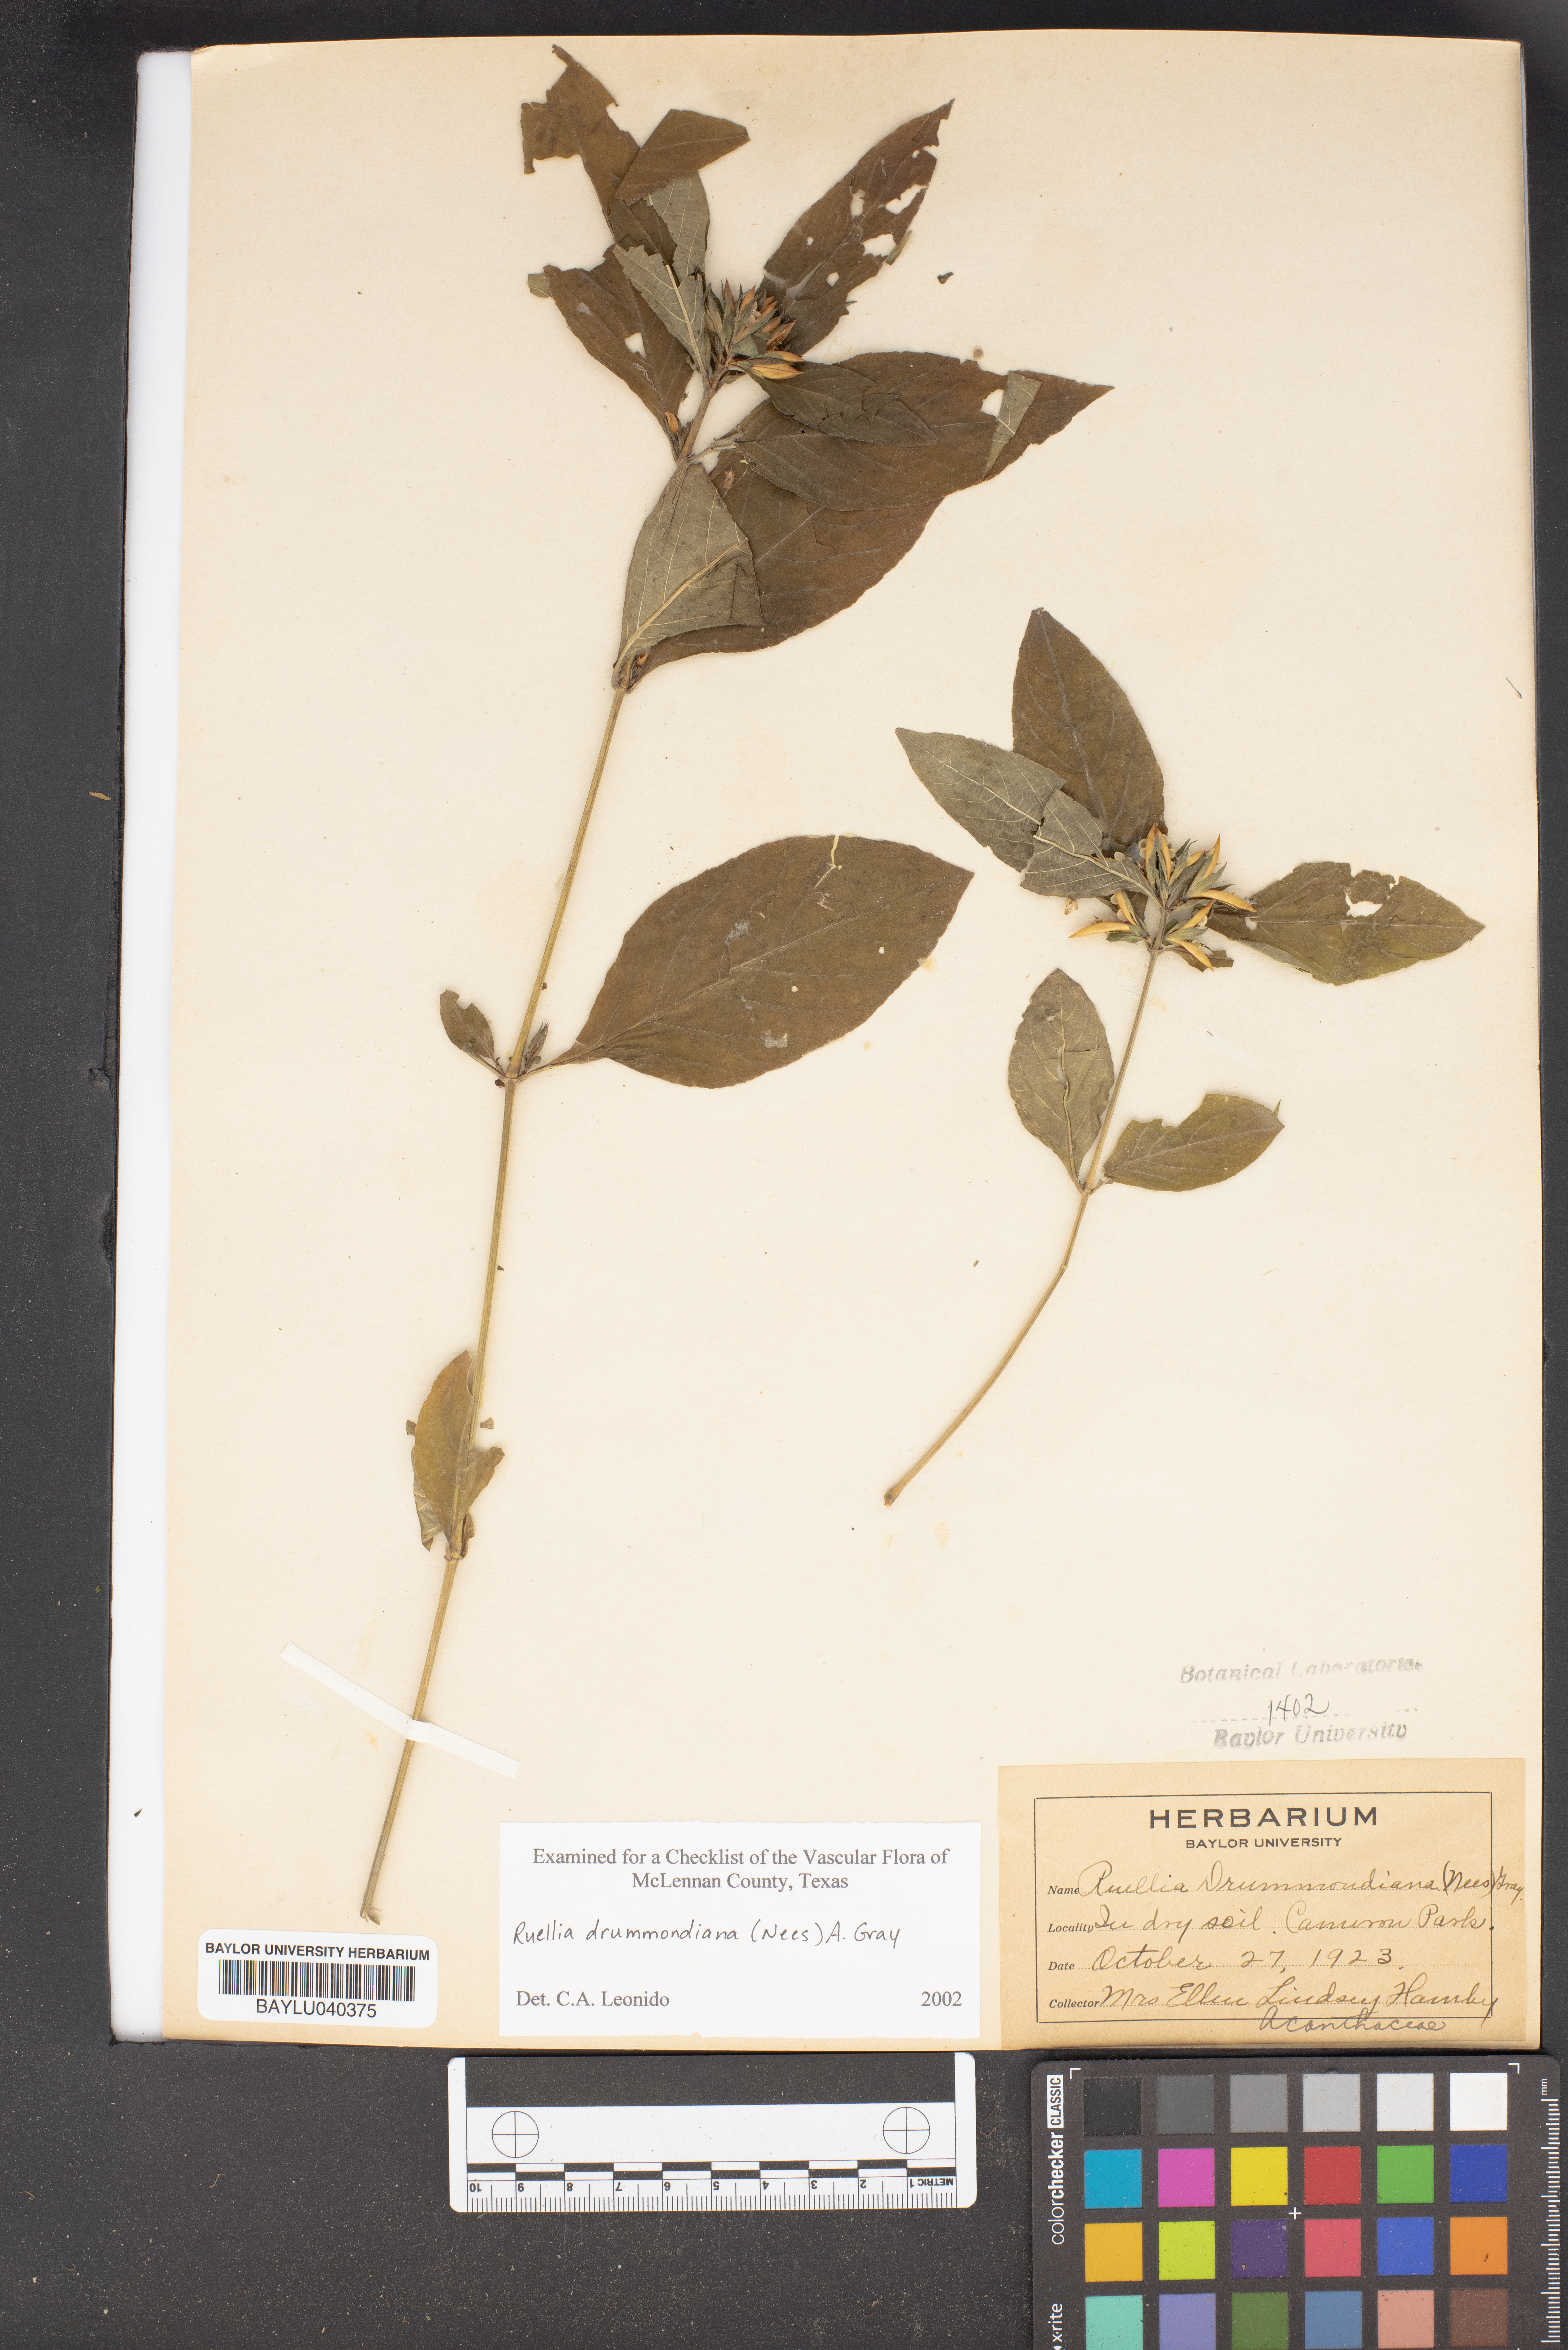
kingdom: Plantae
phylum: Tracheophyta
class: Magnoliopsida
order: Lamiales
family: Acanthaceae
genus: Ruellia
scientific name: Ruellia drummondiana
